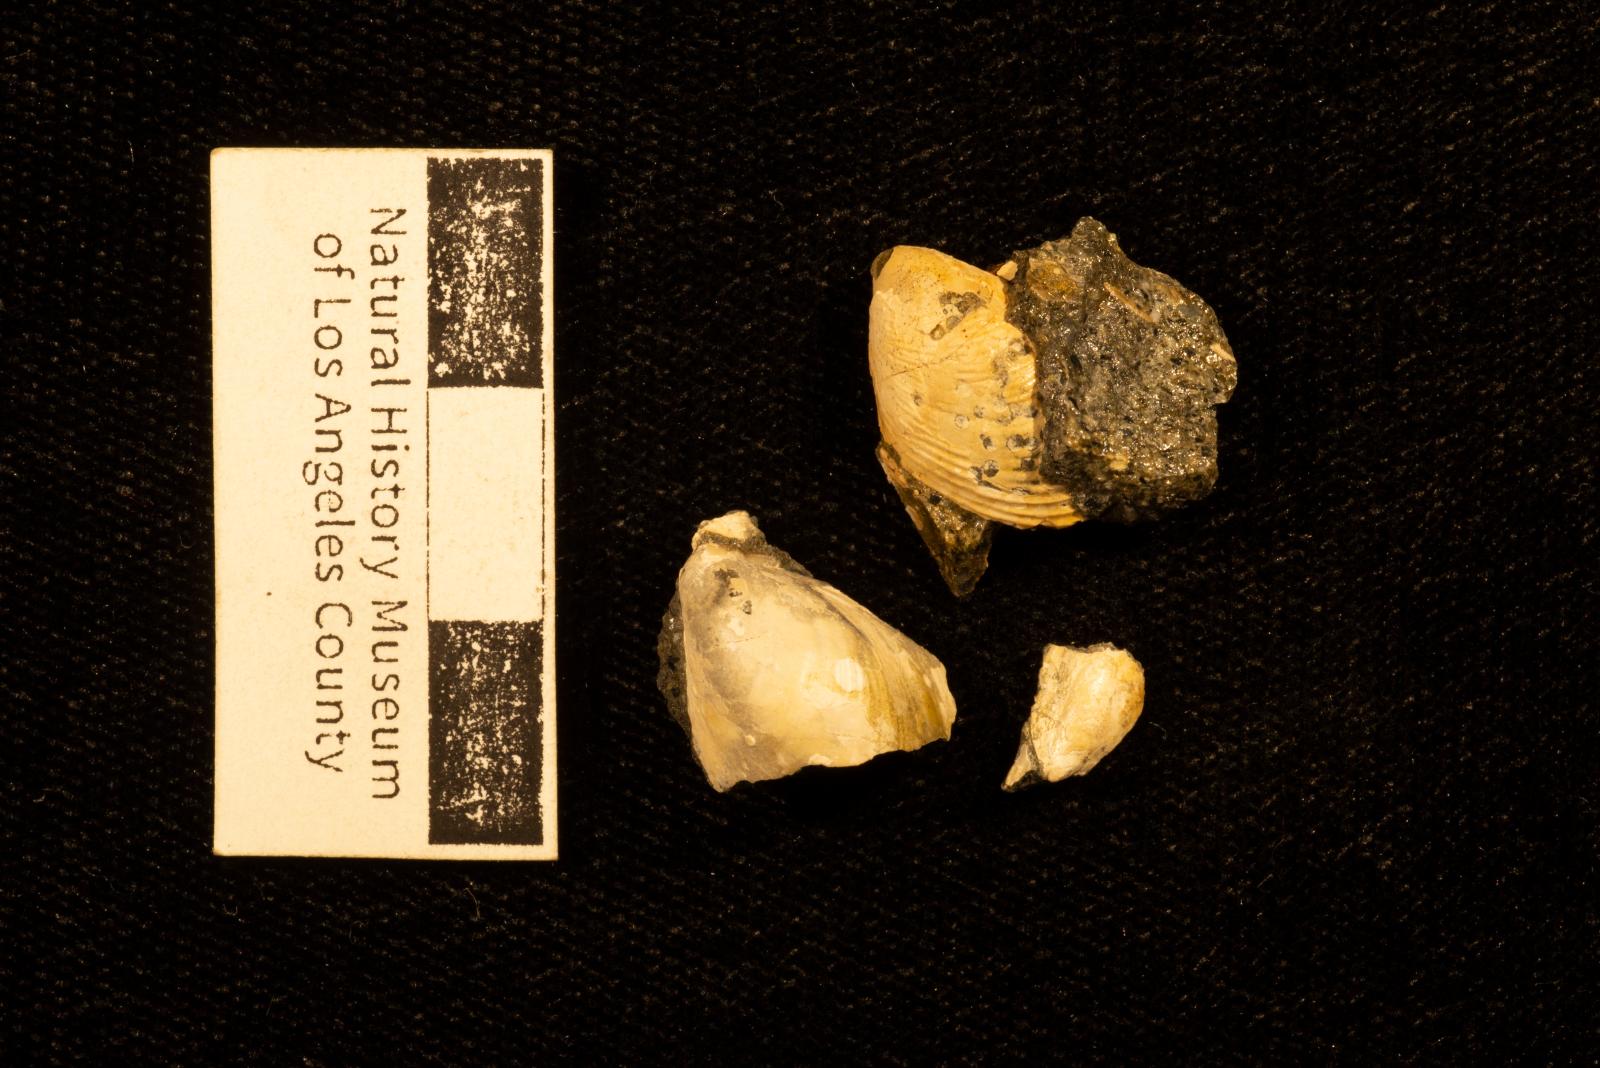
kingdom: Animalia
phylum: Mollusca
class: Bivalvia
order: Myalinida
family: Inoceramidae
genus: Sphenoceramus
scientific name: Sphenoceramus naumanni
